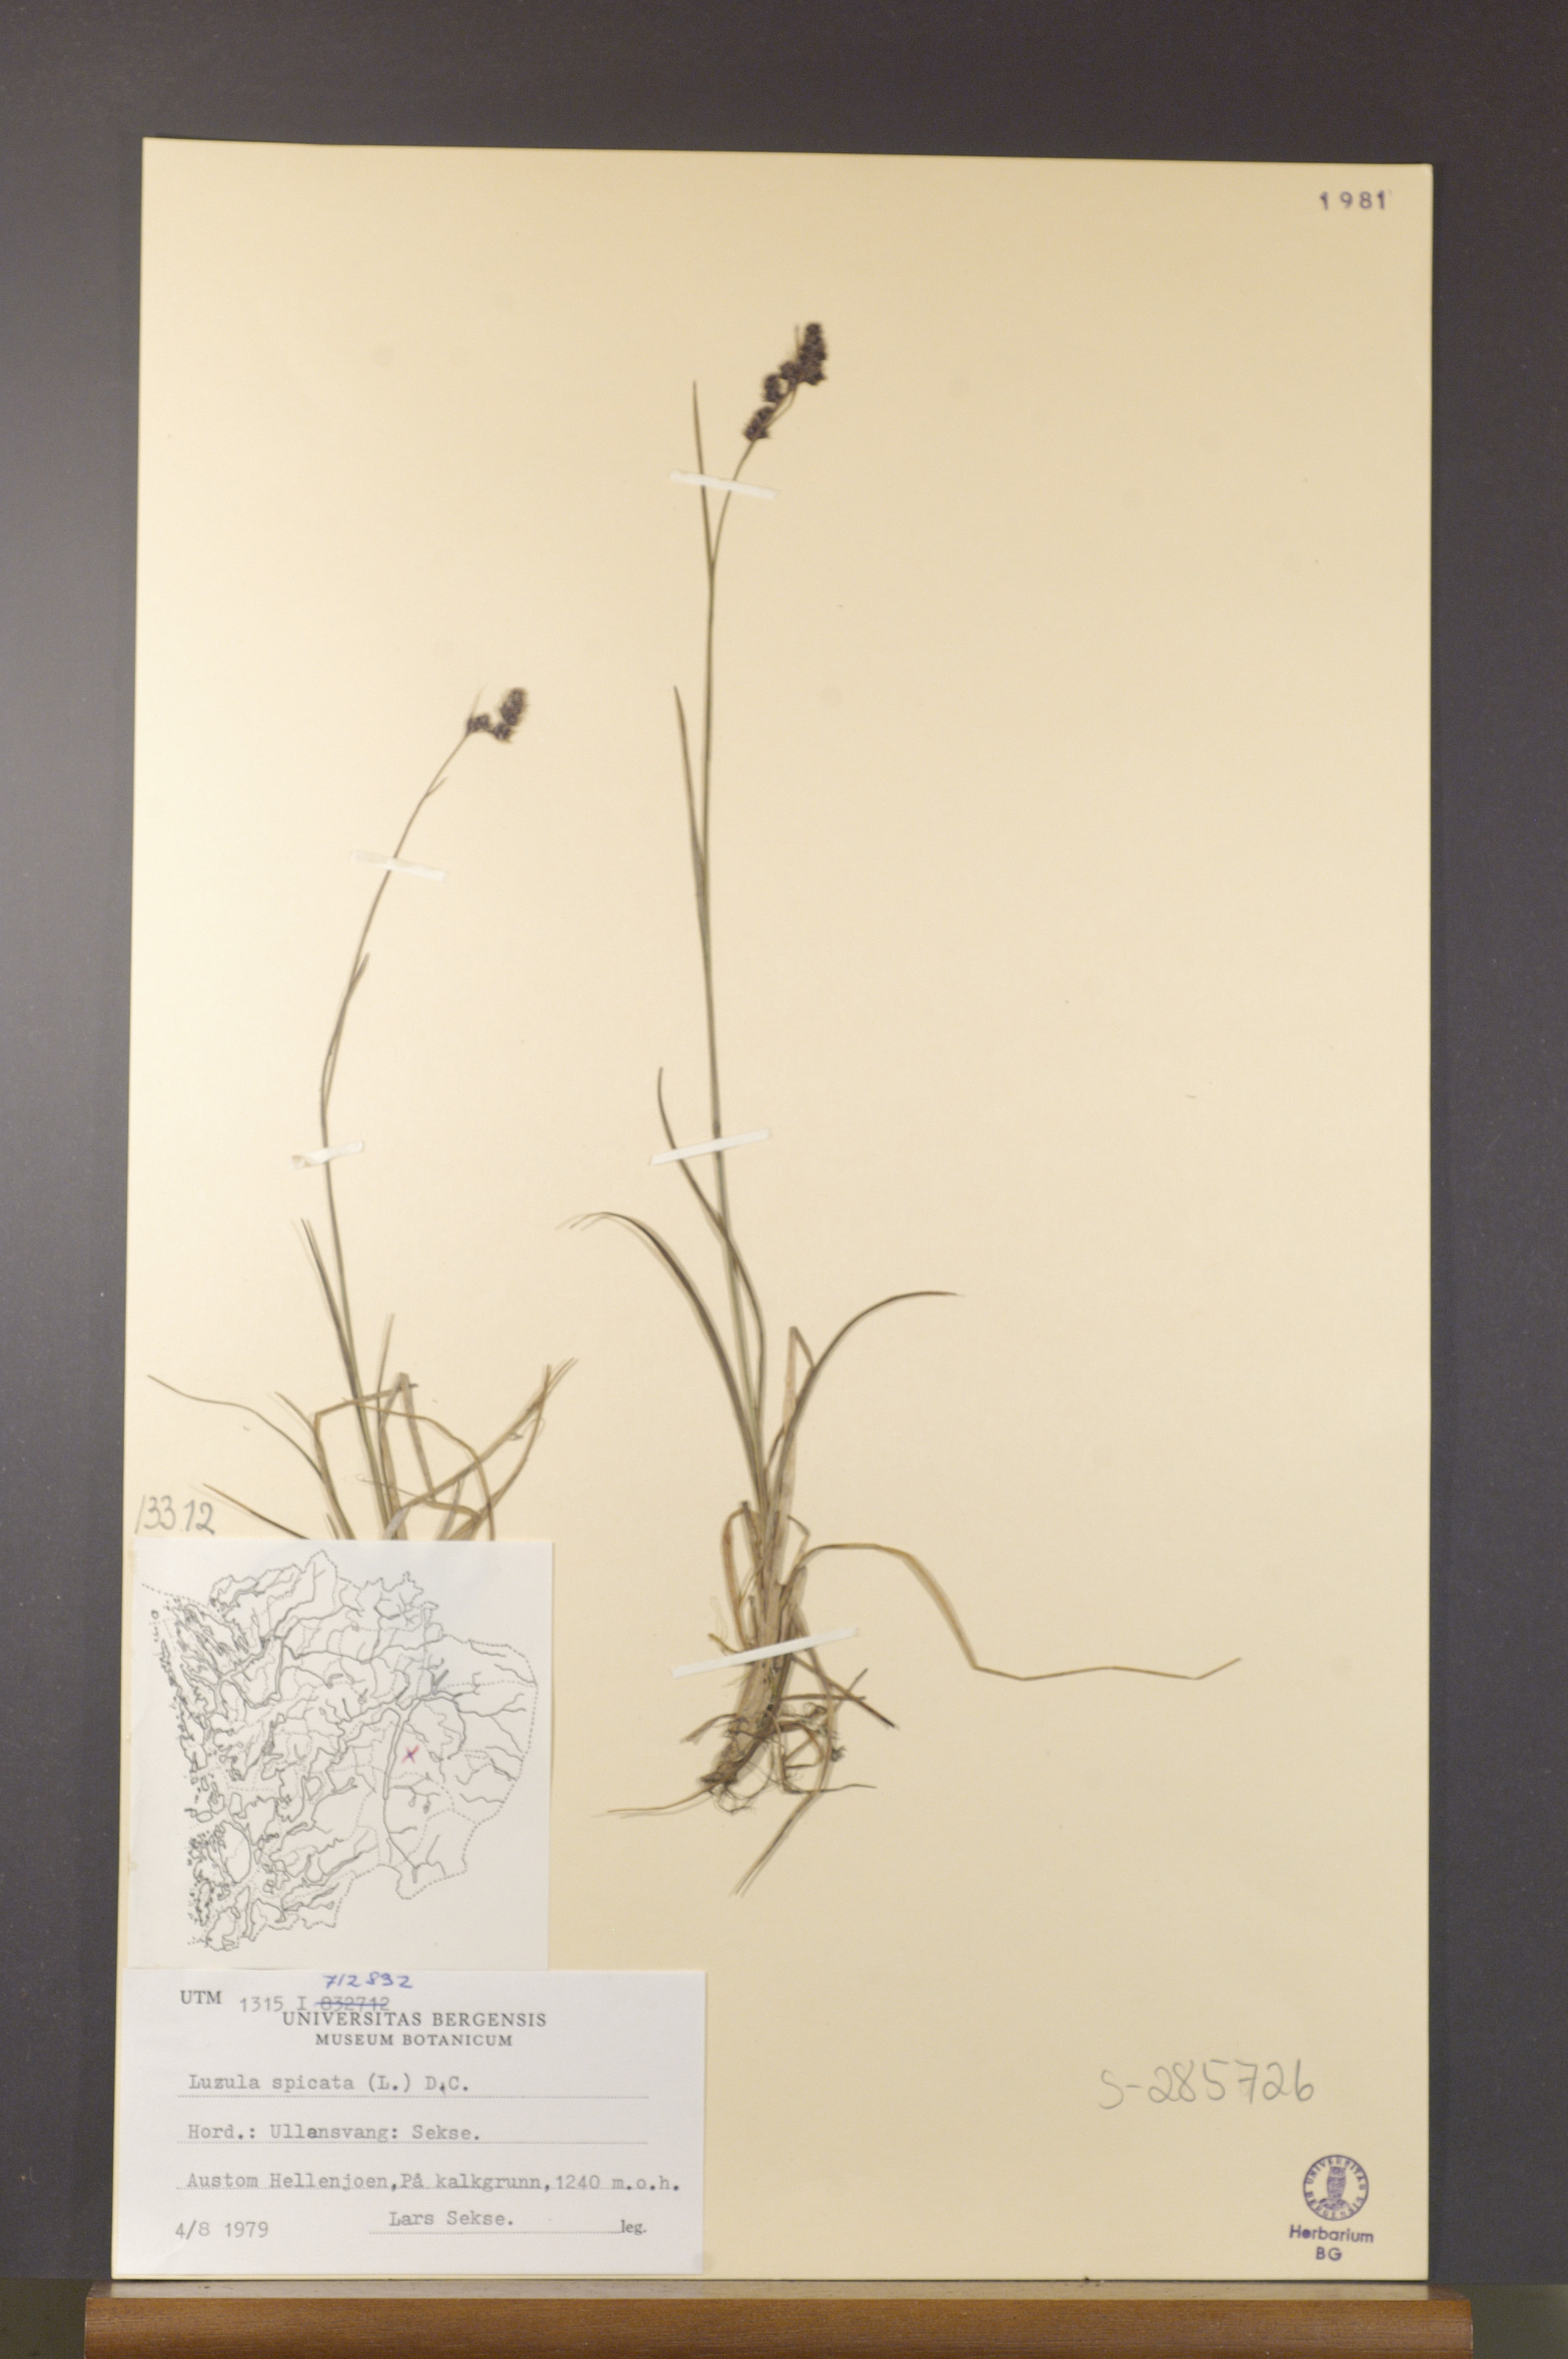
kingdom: Plantae
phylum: Tracheophyta
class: Liliopsida
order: Poales
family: Juncaceae
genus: Luzula
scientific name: Luzula spicata
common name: Spiked wood-rush
